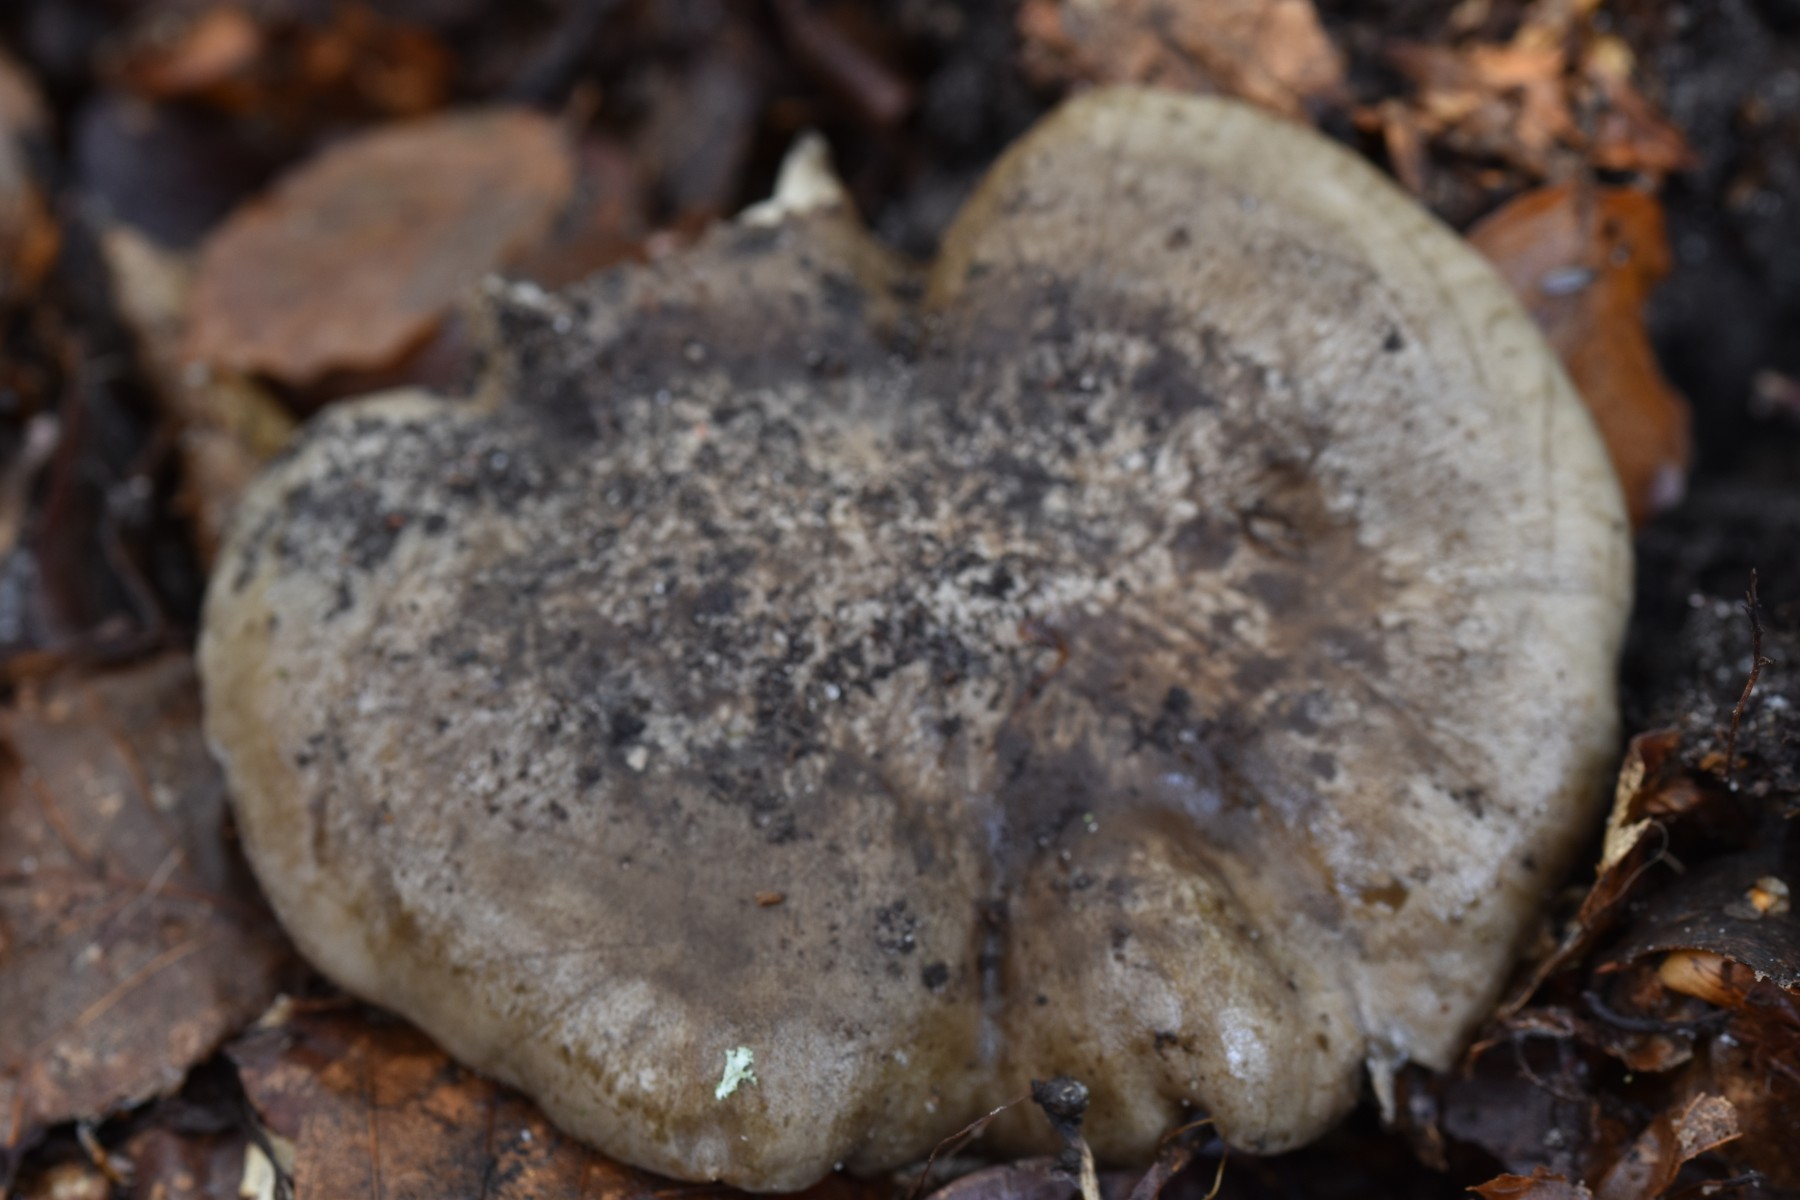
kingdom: Fungi
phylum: Basidiomycota
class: Agaricomycetes
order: Agaricales
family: Lyophyllaceae
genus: Lyophyllum
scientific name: Lyophyllum
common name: gråblad
